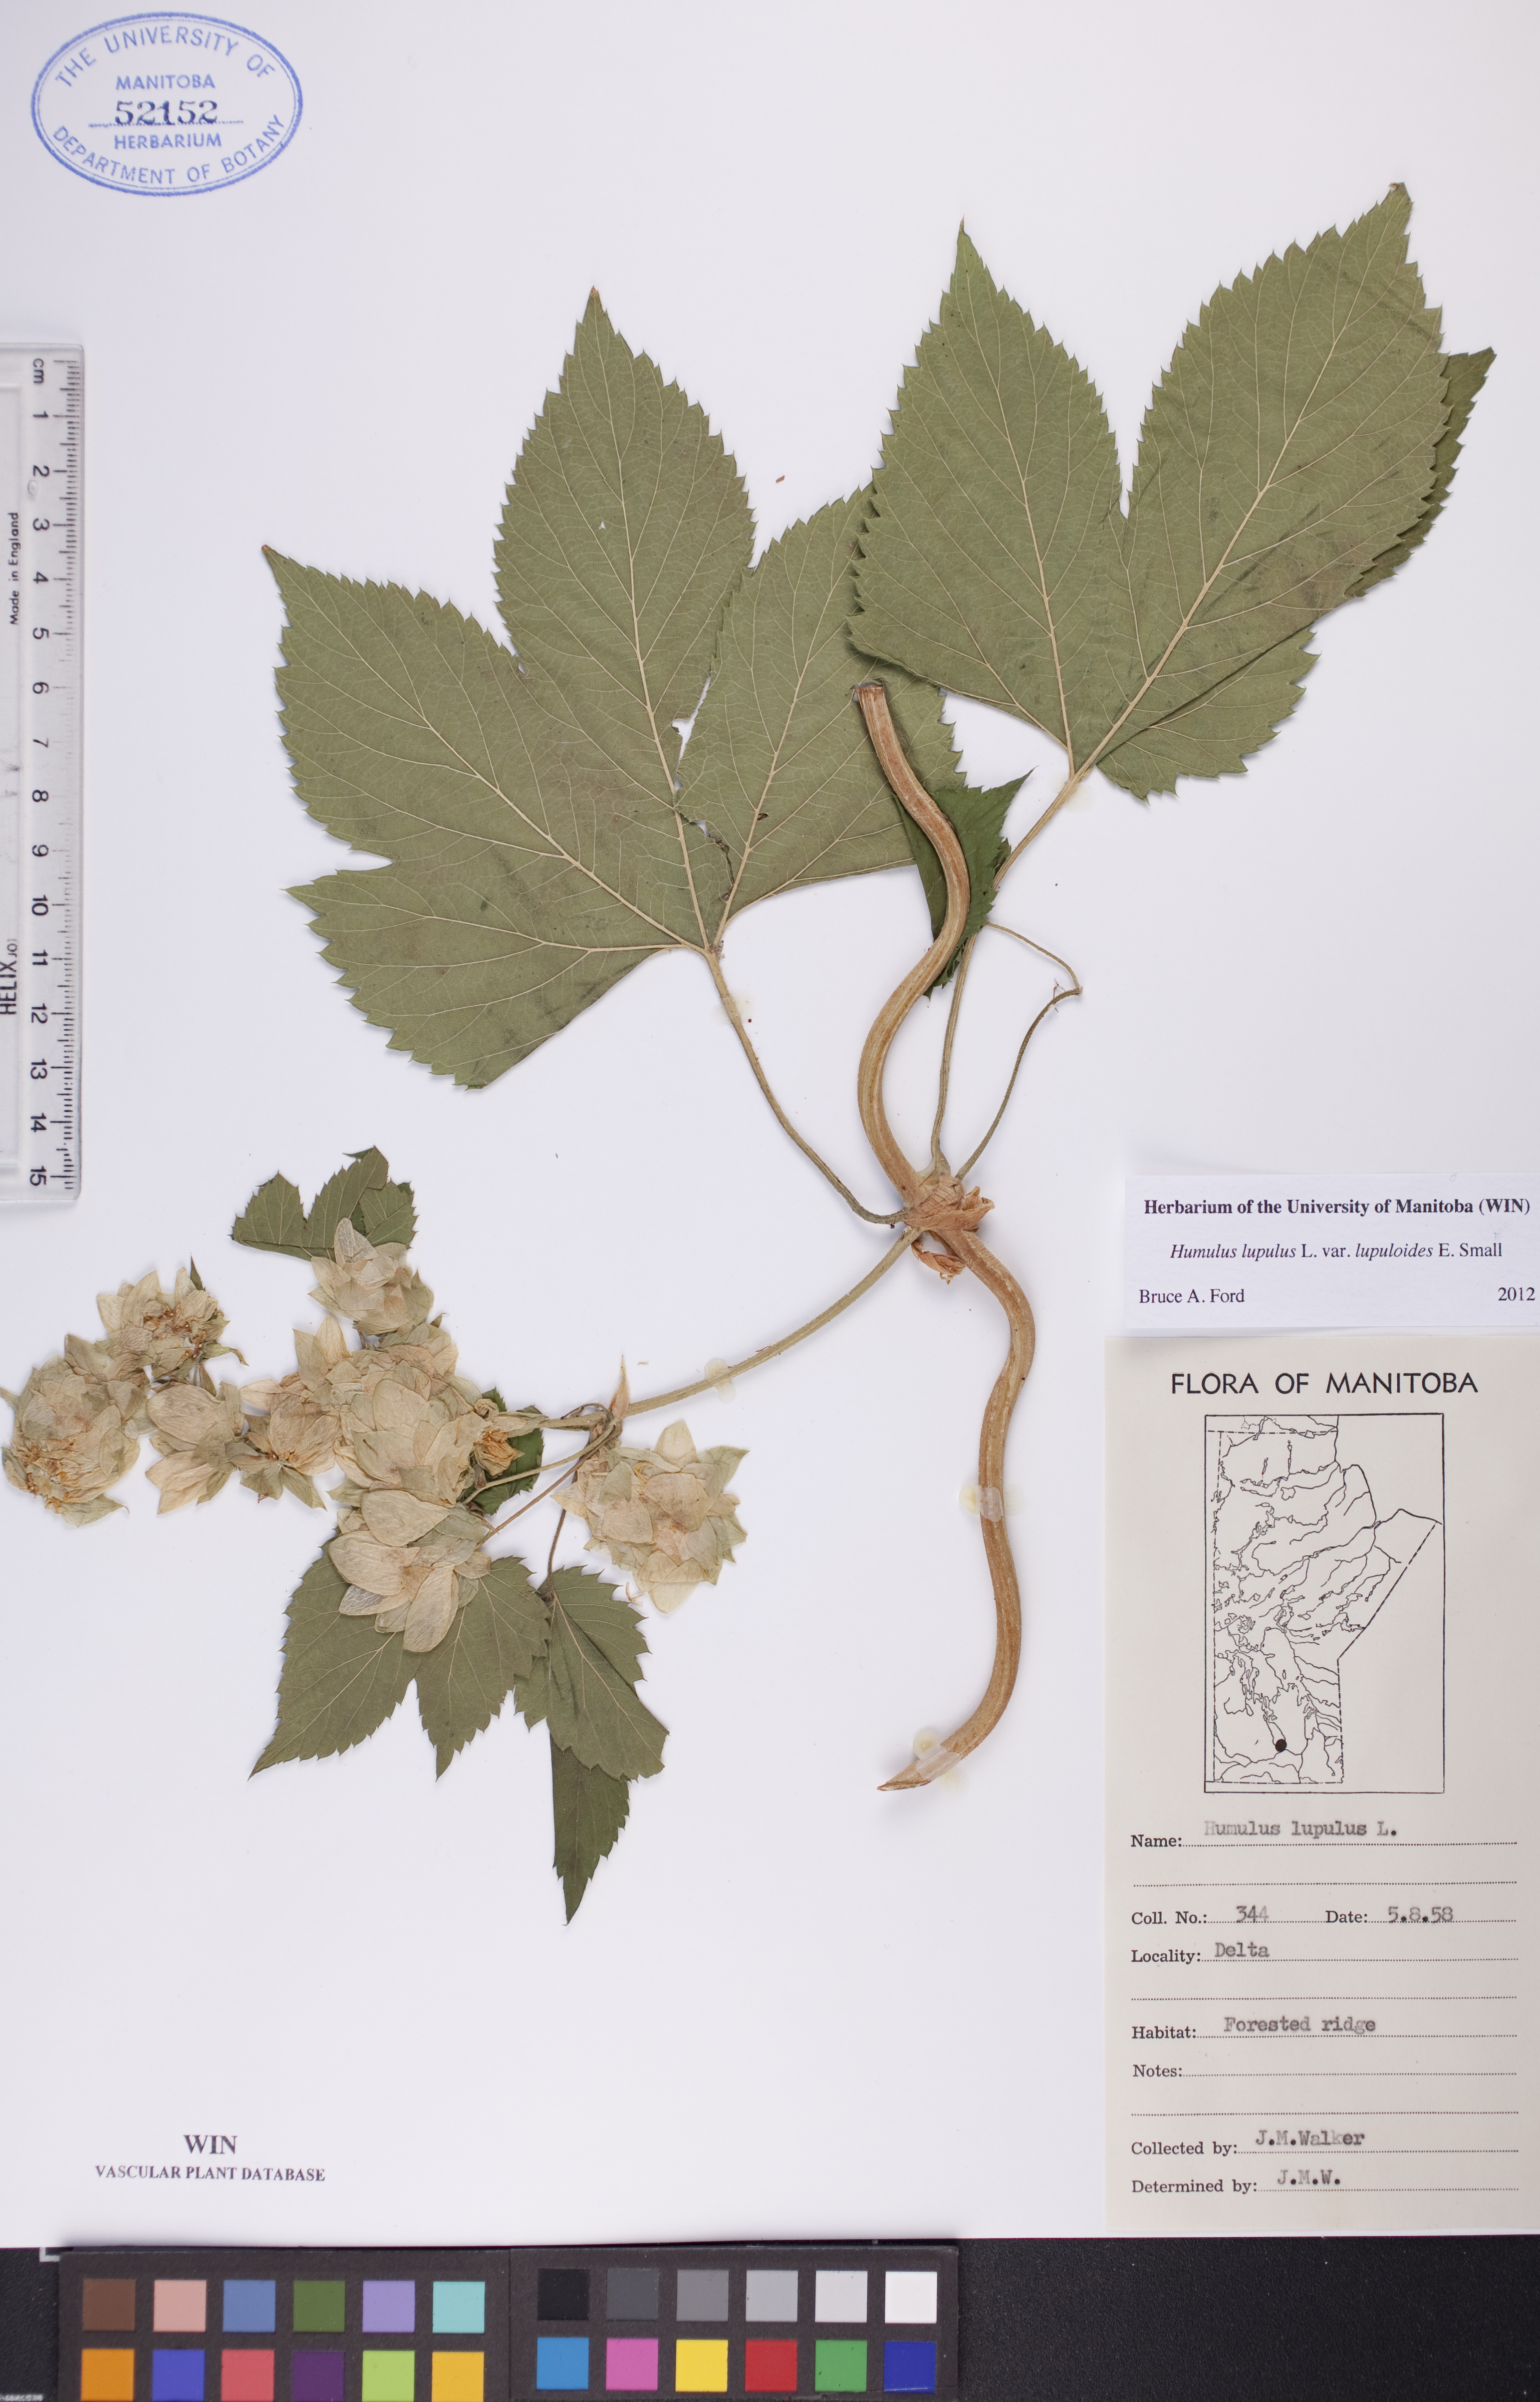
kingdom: Plantae
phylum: Tracheophyta
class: Magnoliopsida
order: Rosales
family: Cannabaceae
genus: Humulus
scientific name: Humulus americanus
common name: American hops
